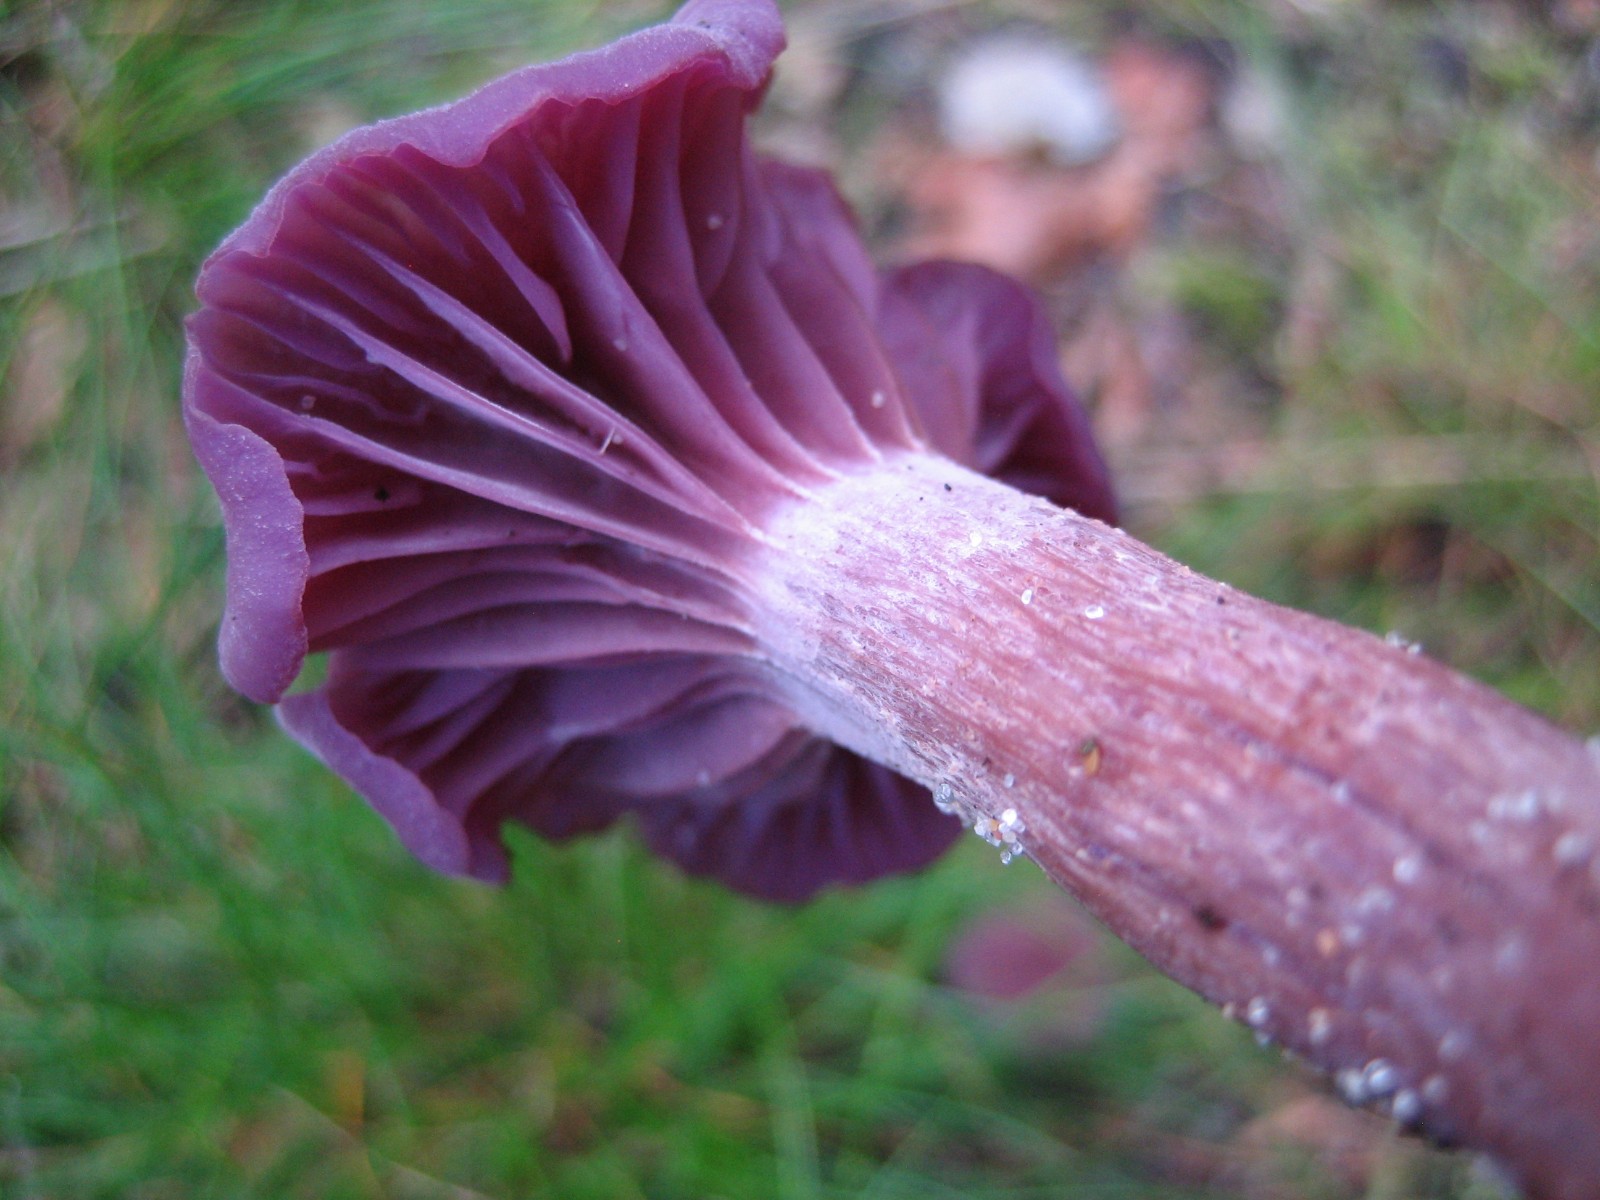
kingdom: Fungi
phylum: Basidiomycota
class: Agaricomycetes
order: Agaricales
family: Hydnangiaceae
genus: Laccaria
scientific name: Laccaria amethystina
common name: violet ametysthat
